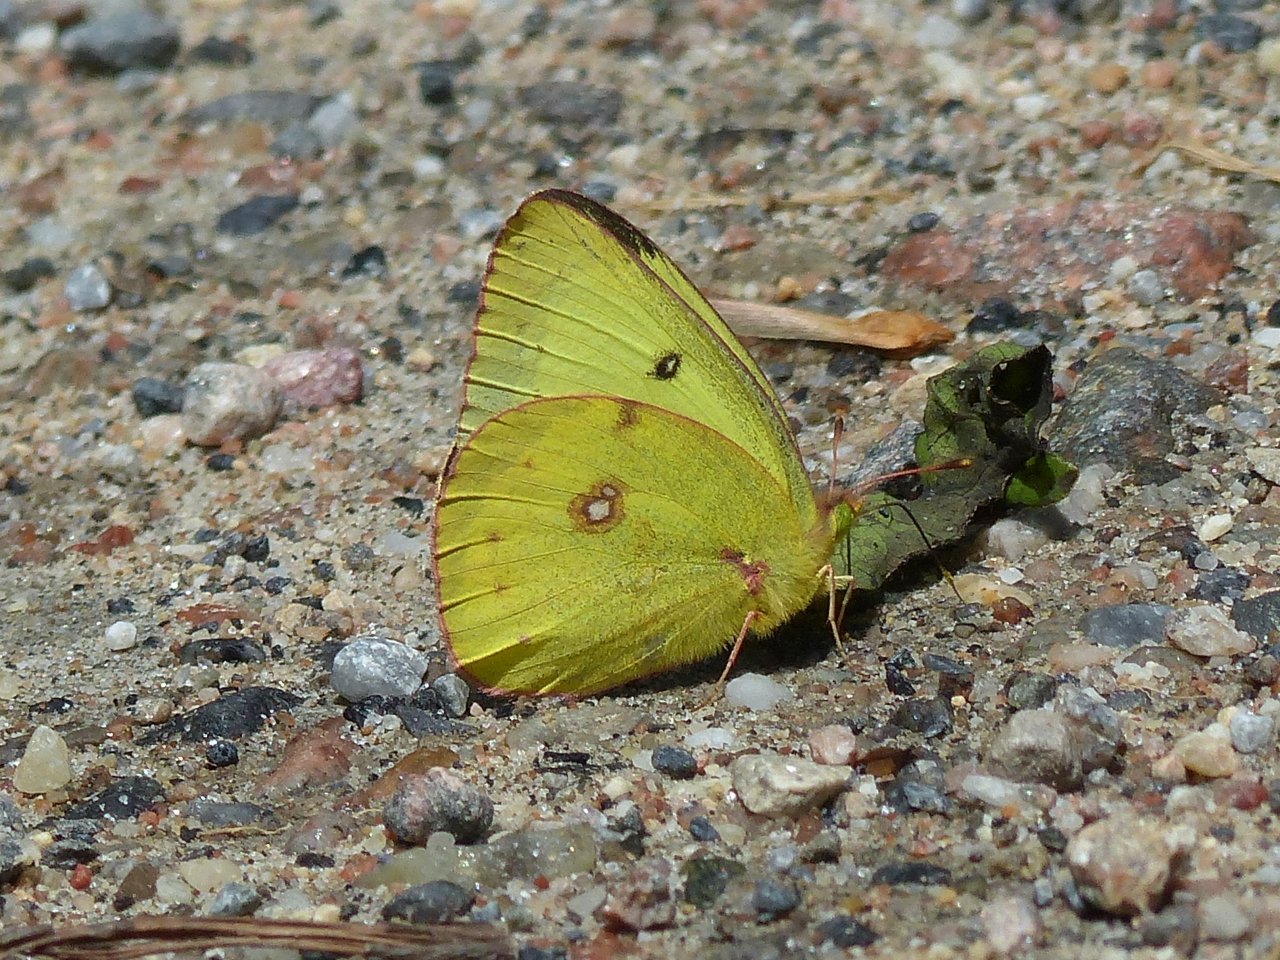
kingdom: Animalia
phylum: Arthropoda
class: Insecta
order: Lepidoptera
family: Pieridae
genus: Colias
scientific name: Colias philodice
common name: Clouded Sulphur
